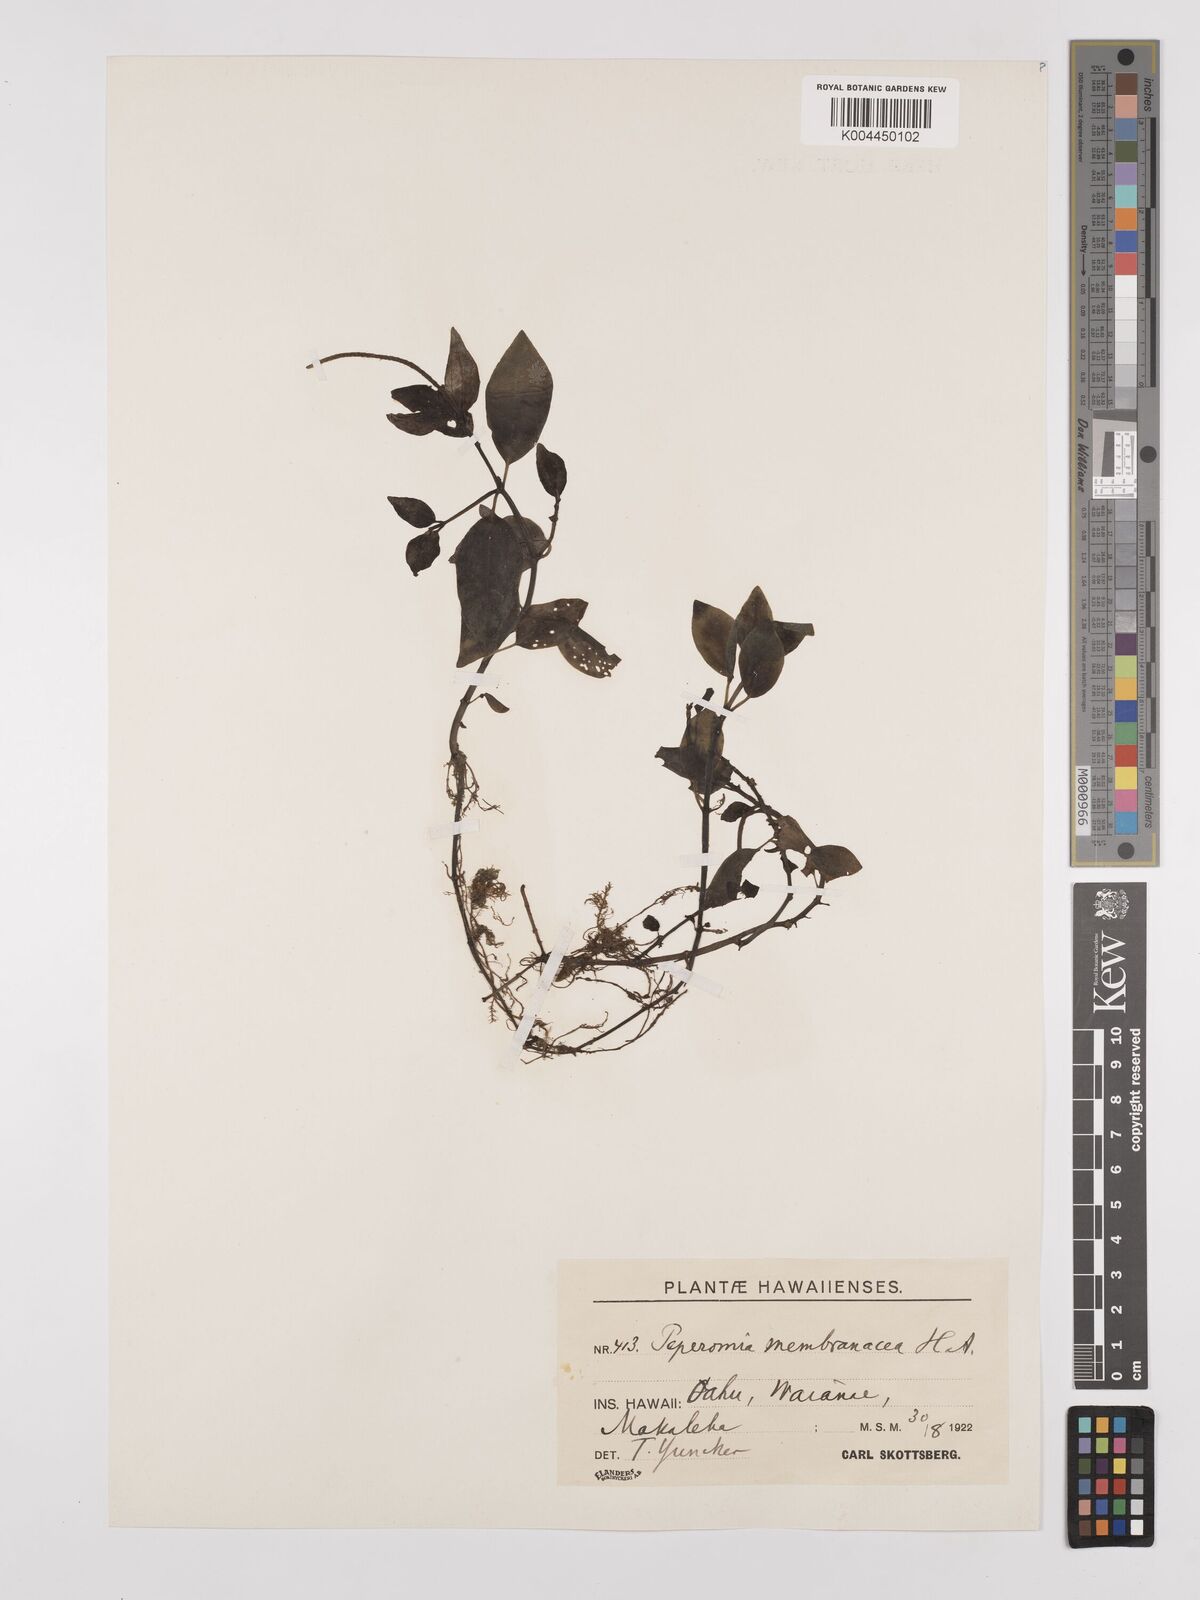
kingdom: Plantae
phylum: Tracheophyta
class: Magnoliopsida
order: Piperales
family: Piperaceae
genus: Peperomia
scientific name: Peperomia membranacea
